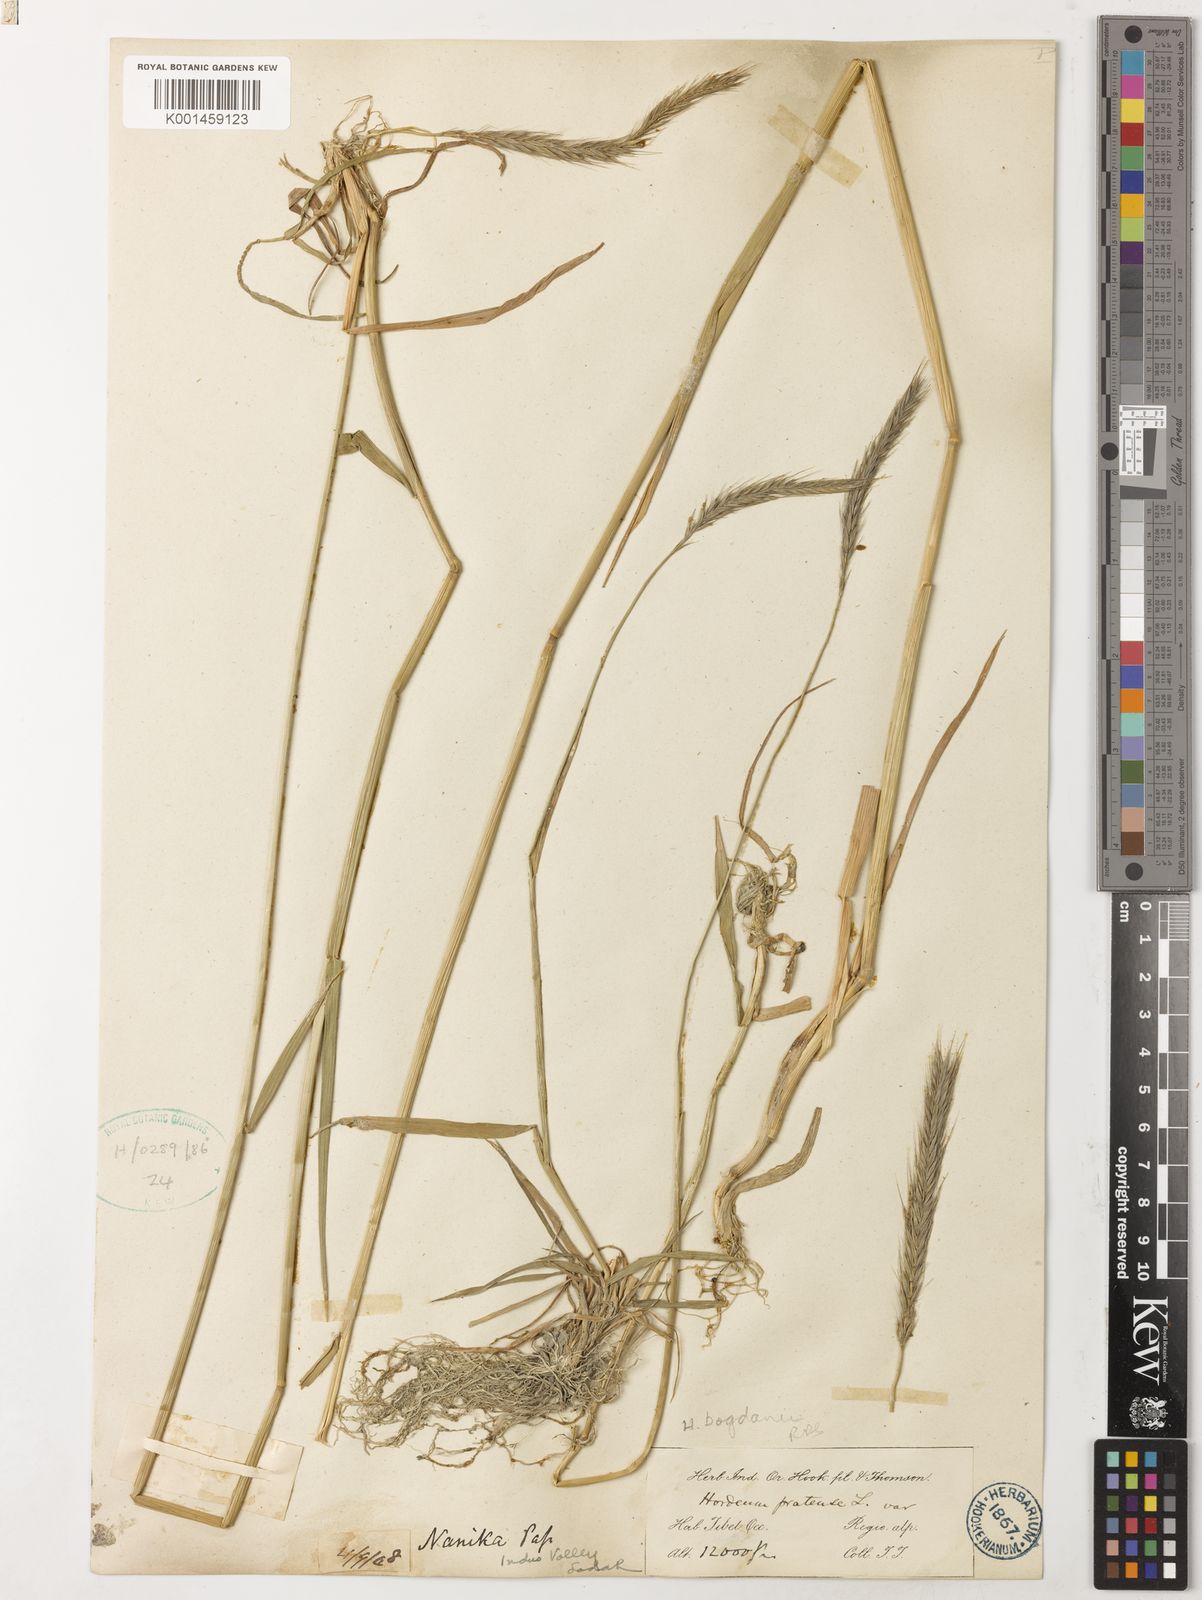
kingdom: Plantae
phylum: Tracheophyta
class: Liliopsida
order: Poales
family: Poaceae
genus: Hordeum
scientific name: Hordeum bogdanii
